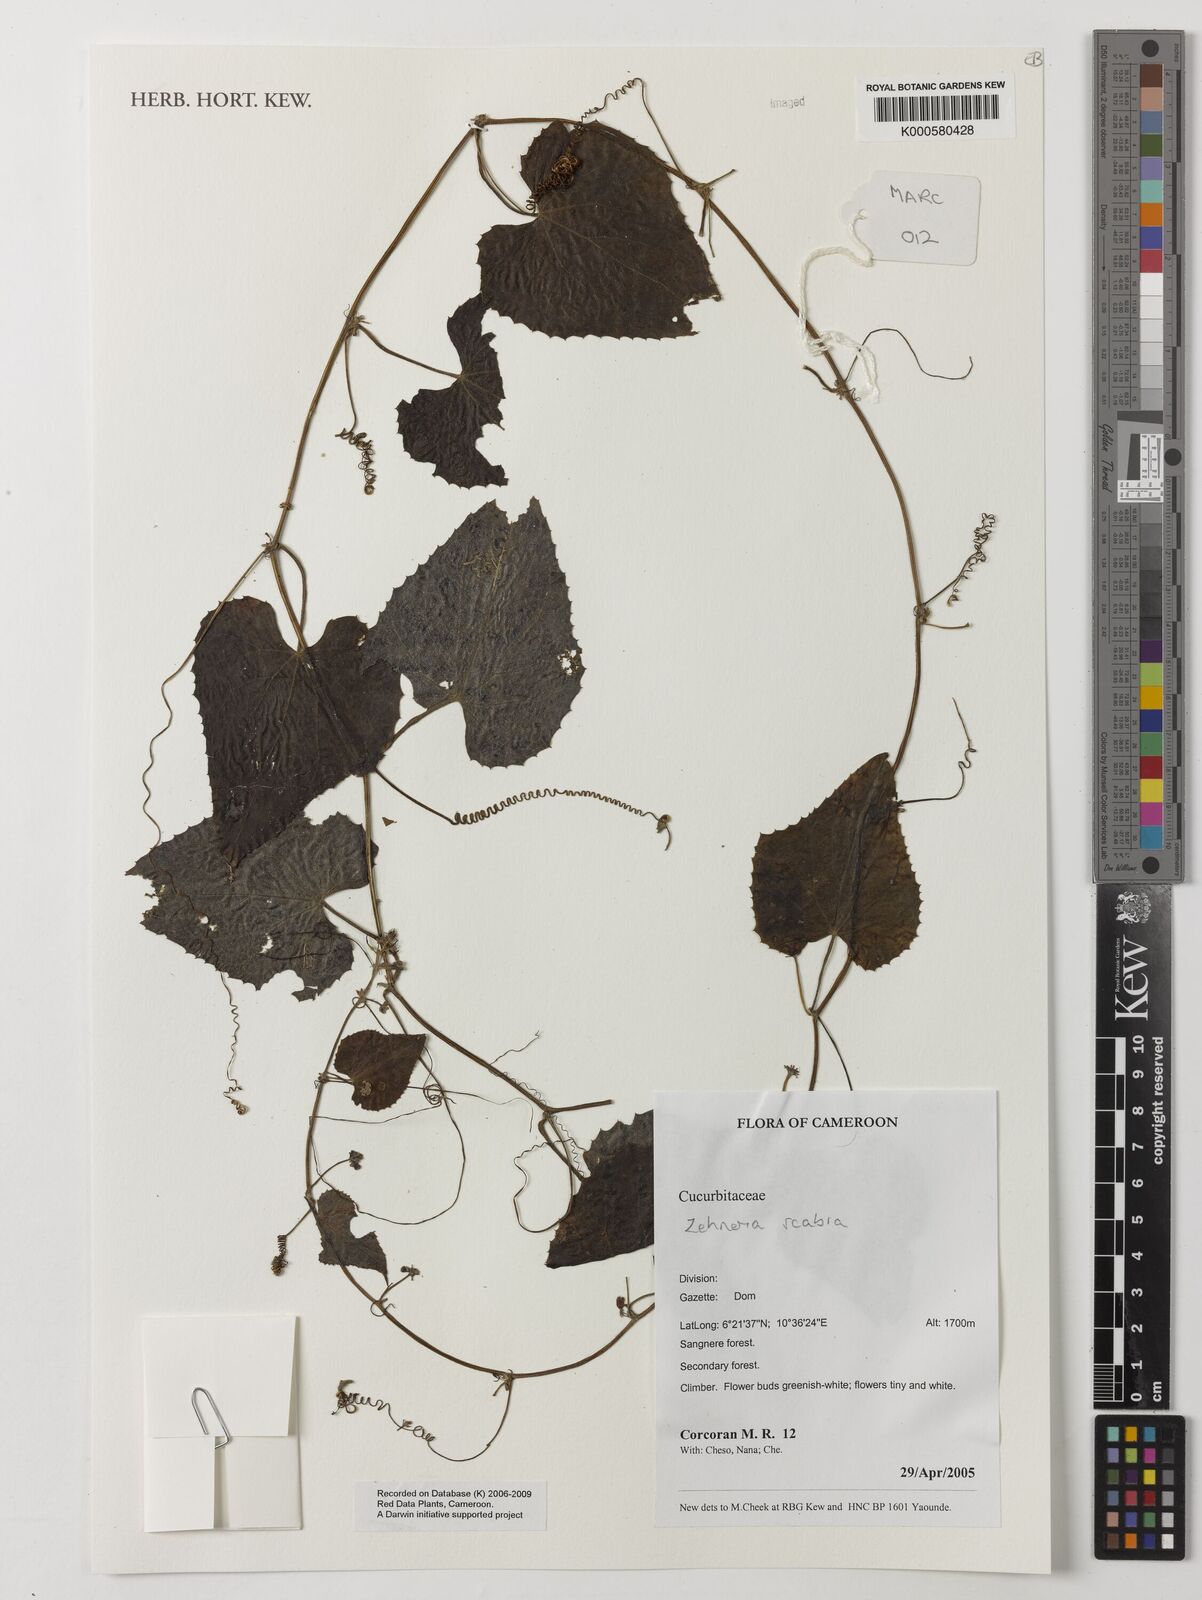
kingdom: Plantae
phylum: Tracheophyta
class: Magnoliopsida
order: Cucurbitales
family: Cucurbitaceae
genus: Zehneria
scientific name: Zehneria scabra
